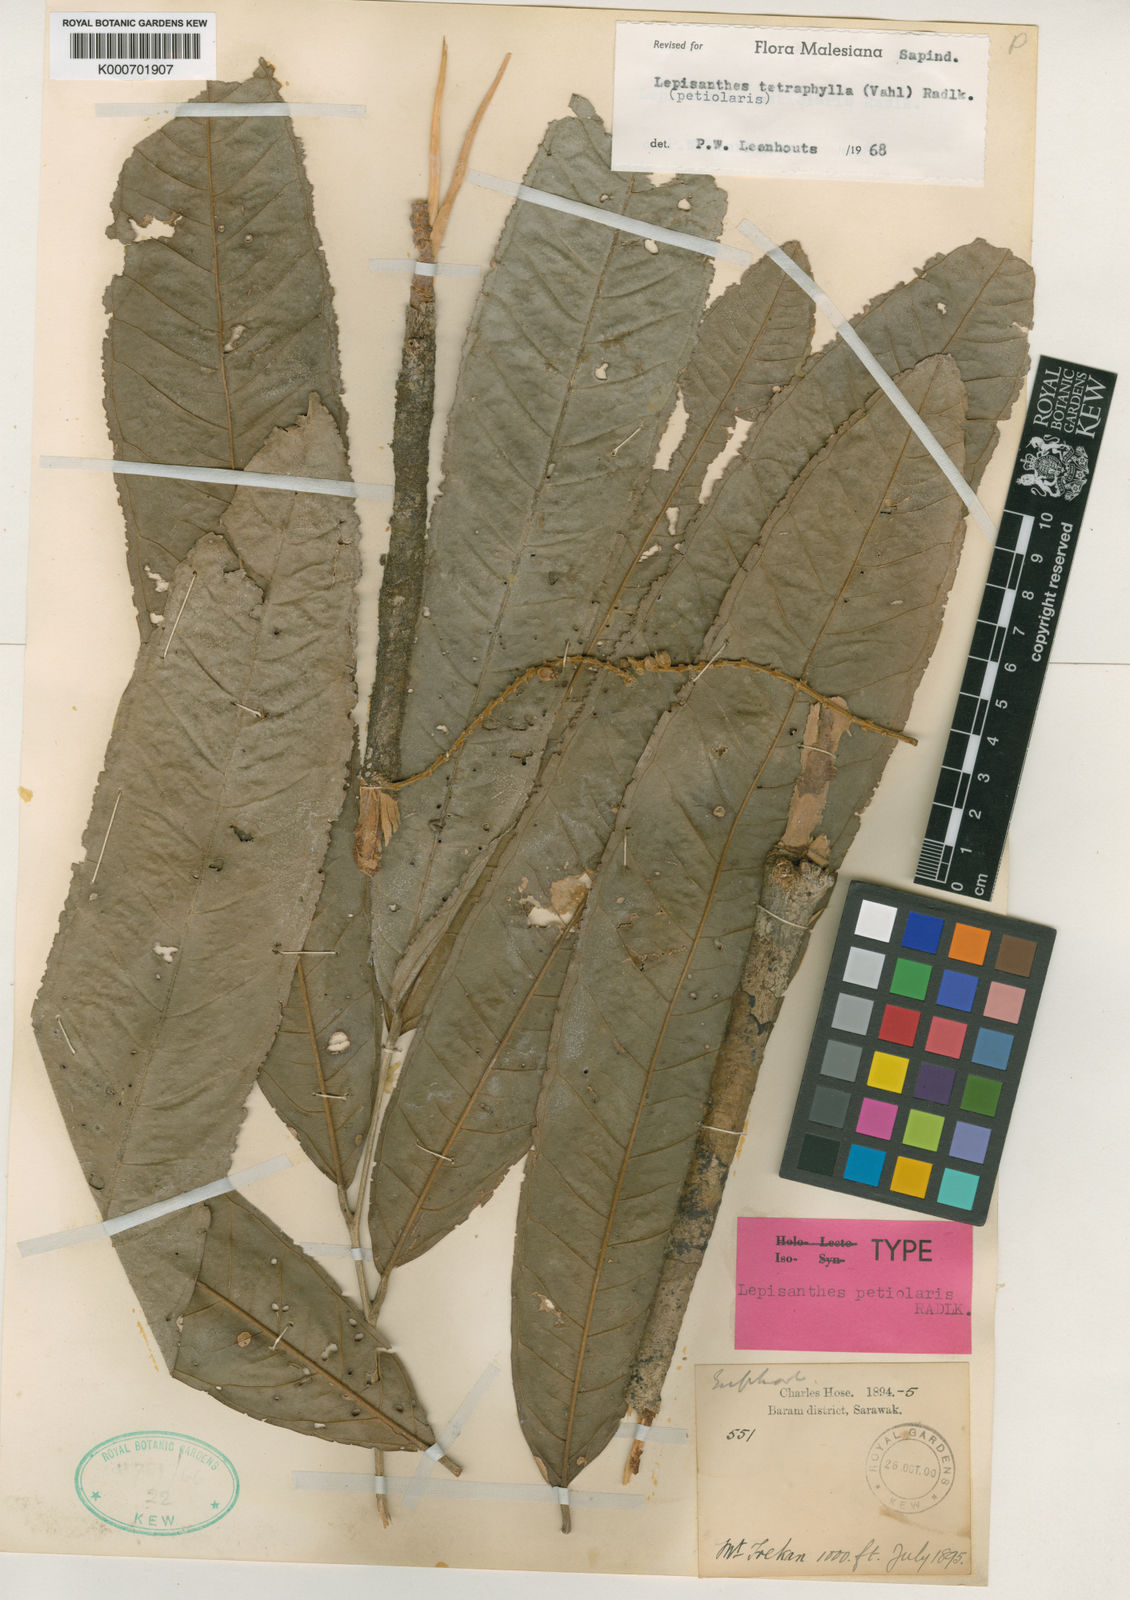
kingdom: Plantae
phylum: Tracheophyta
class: Magnoliopsida
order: Sapindales
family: Sapindaceae
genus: Lepisanthes
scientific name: Lepisanthes tetraphylla
